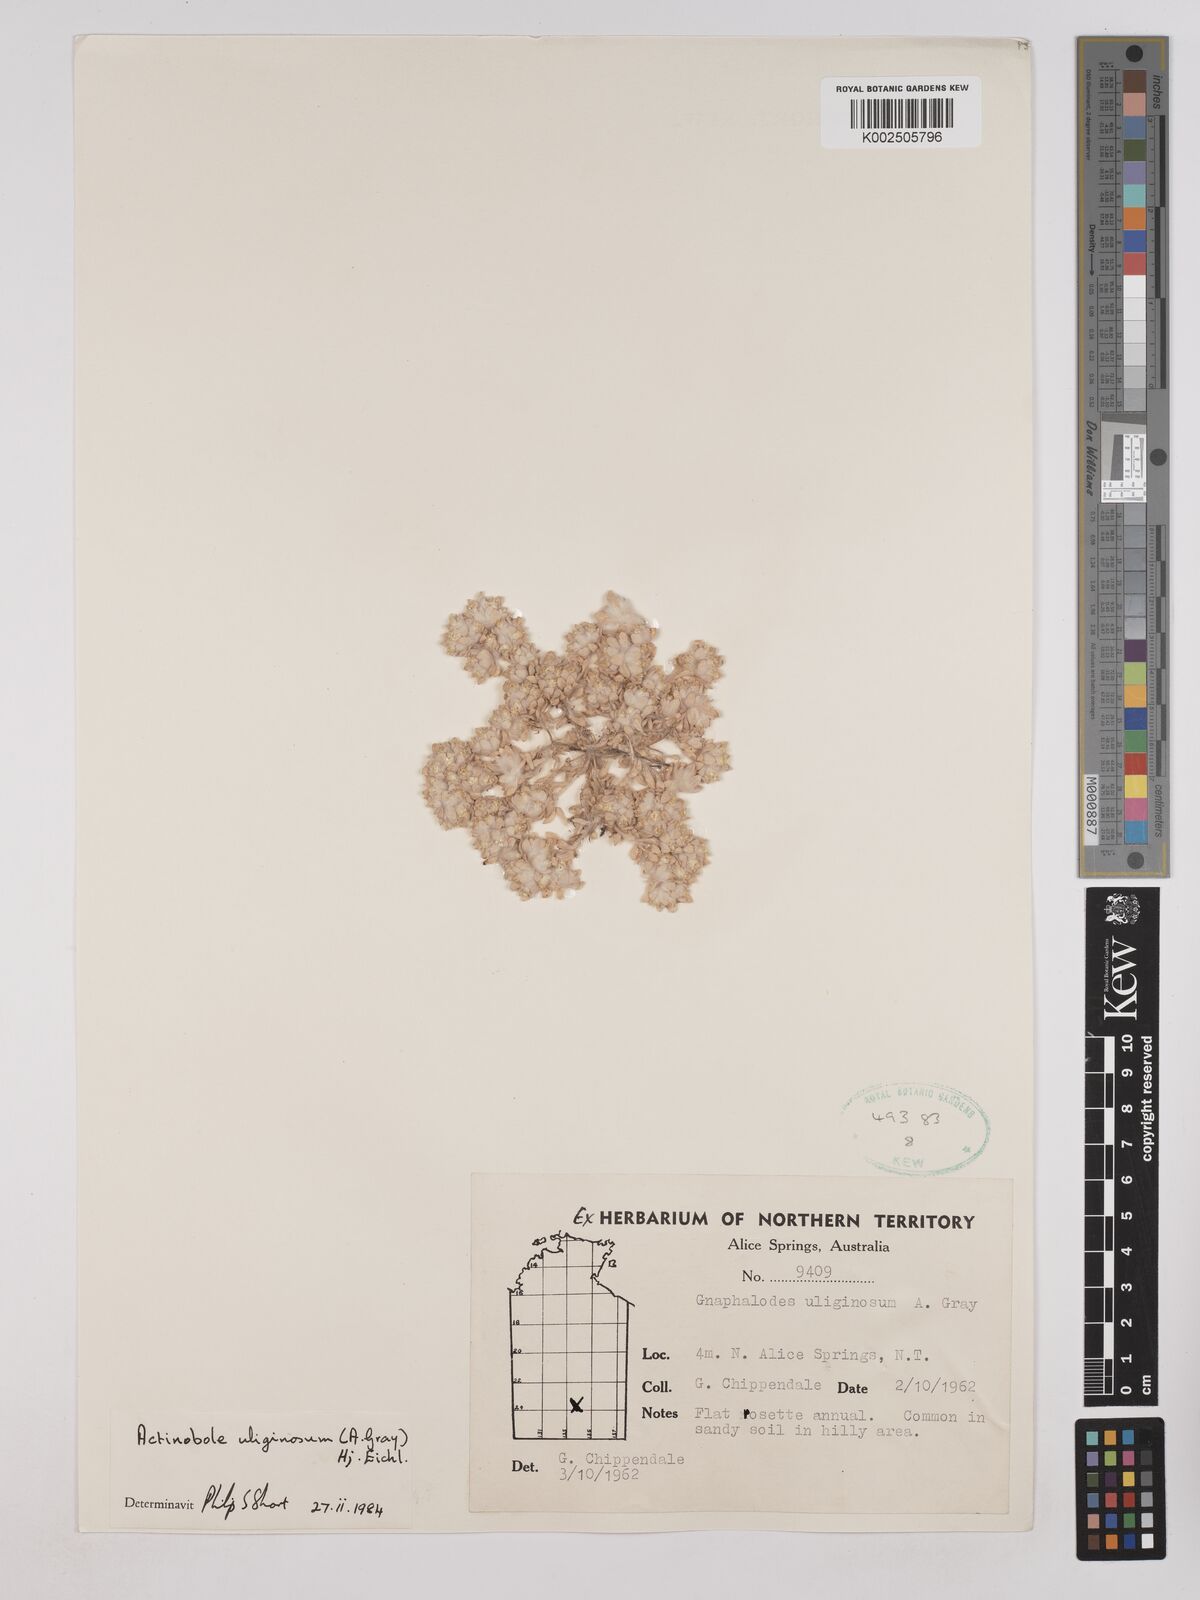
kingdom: Plantae
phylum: Tracheophyta
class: Magnoliopsida
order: Asterales
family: Asteraceae
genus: Actinobole
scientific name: Actinobole uliginosum
